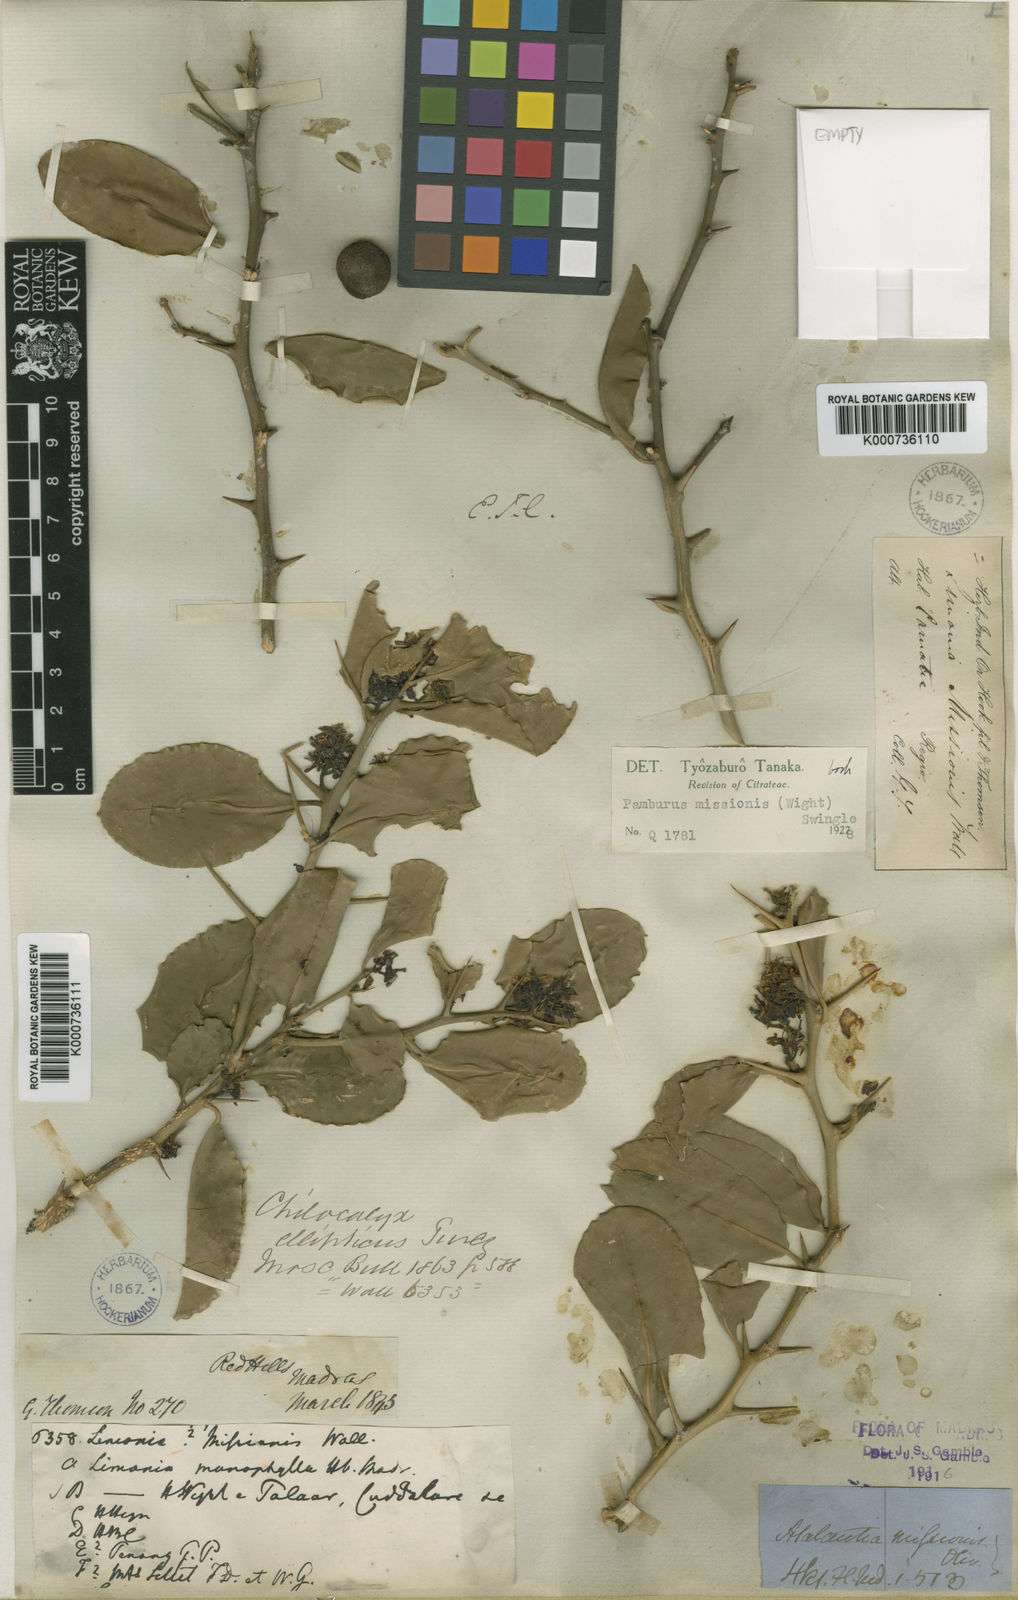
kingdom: Plantae
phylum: Tracheophyta
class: Magnoliopsida
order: Sapindales
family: Rutaceae
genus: Pamburus
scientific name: Pamburus missionis
